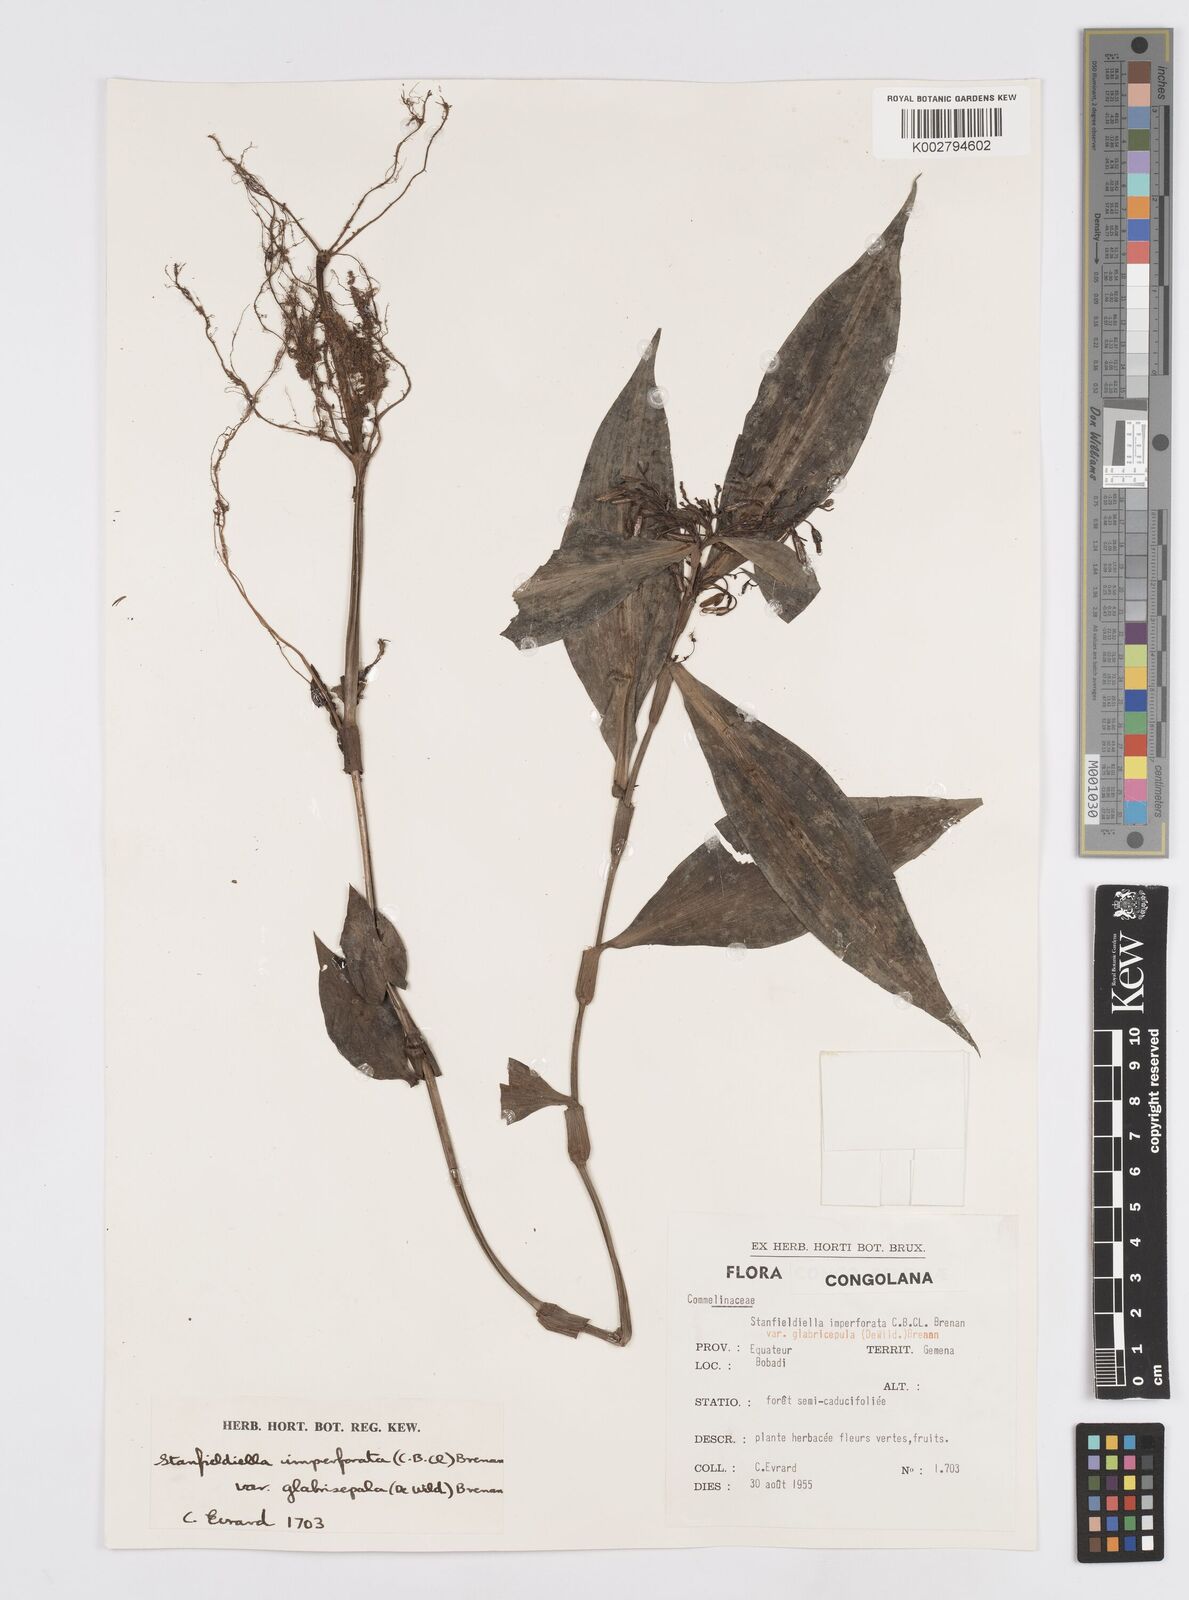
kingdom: Plantae
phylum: Tracheophyta
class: Liliopsida
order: Commelinales
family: Commelinaceae
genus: Stanfieldiella
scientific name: Stanfieldiella imperforata
